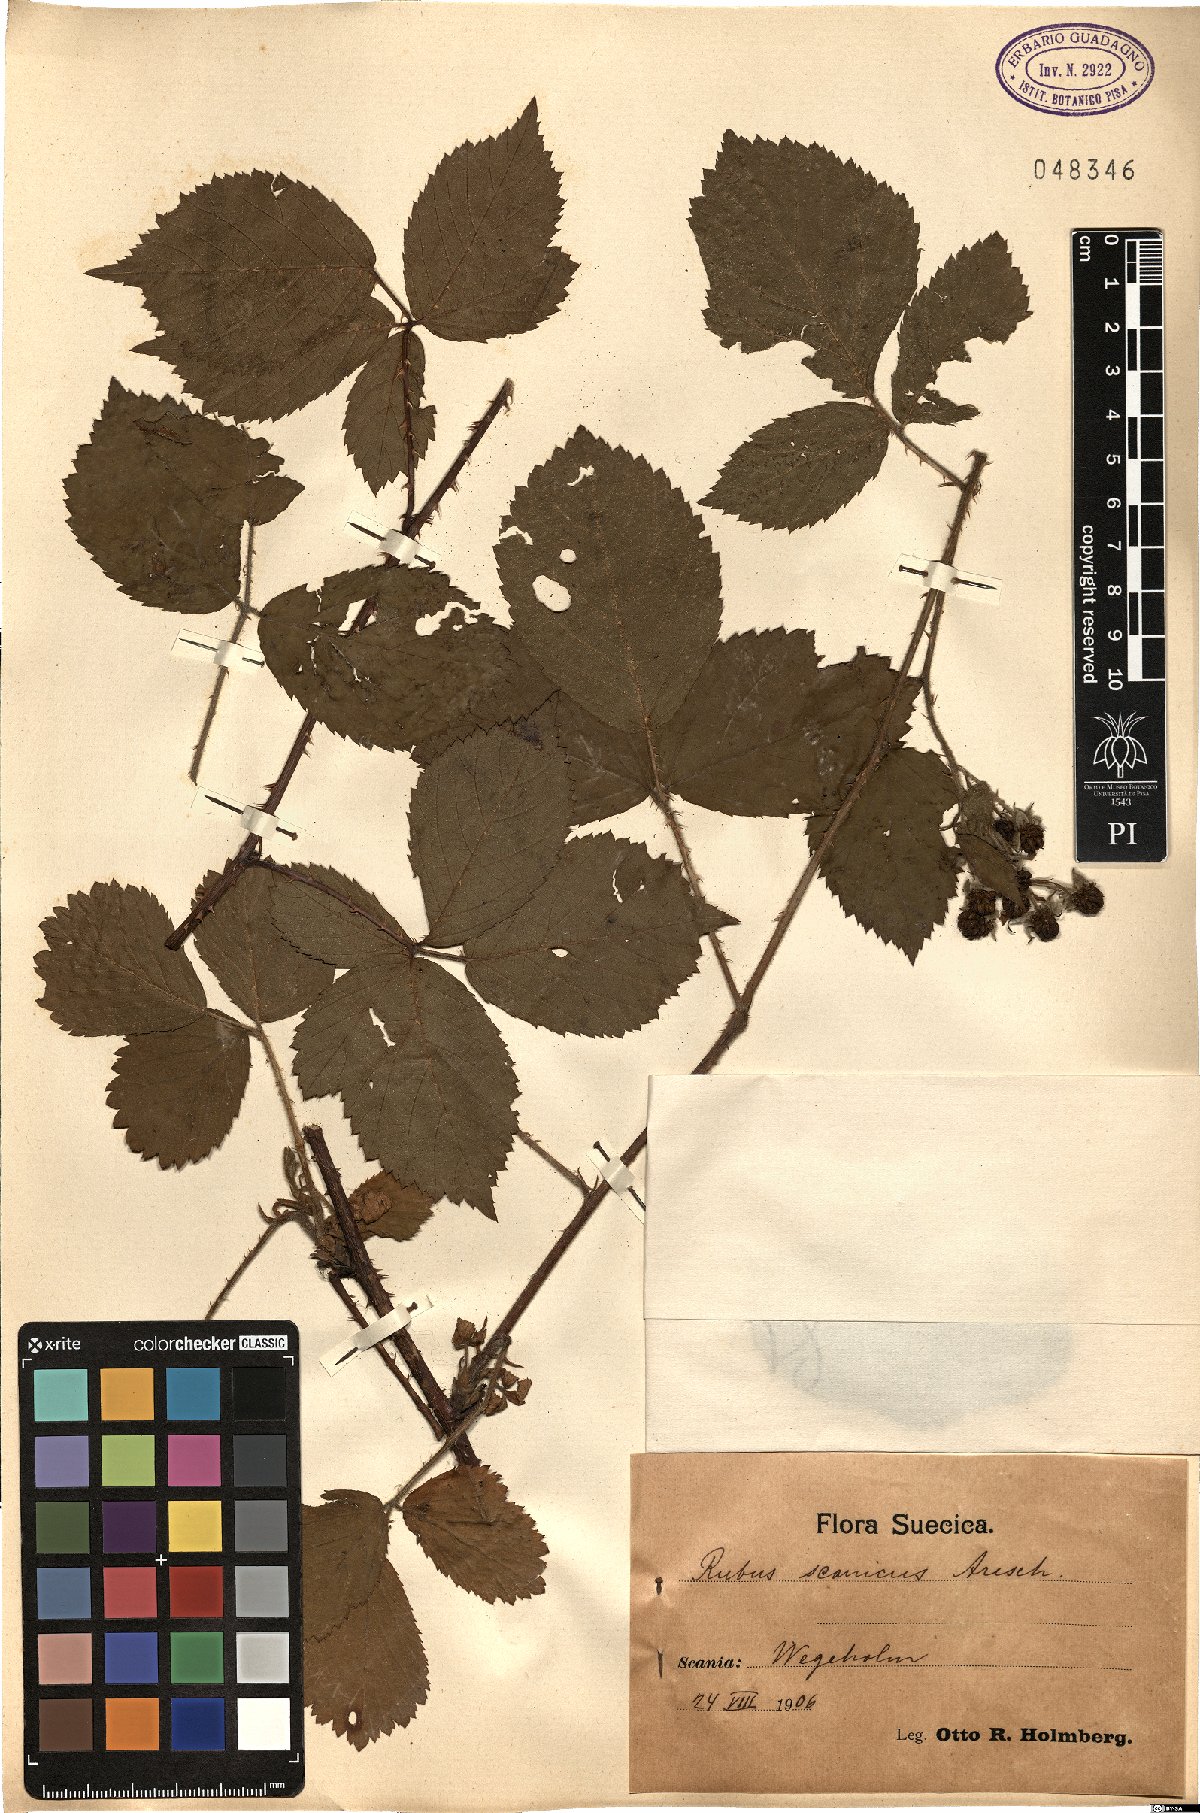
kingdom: Plantae
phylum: Tracheophyta
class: Magnoliopsida
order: Rosales
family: Rosaceae
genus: Rubus
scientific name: Rubus axillaris
